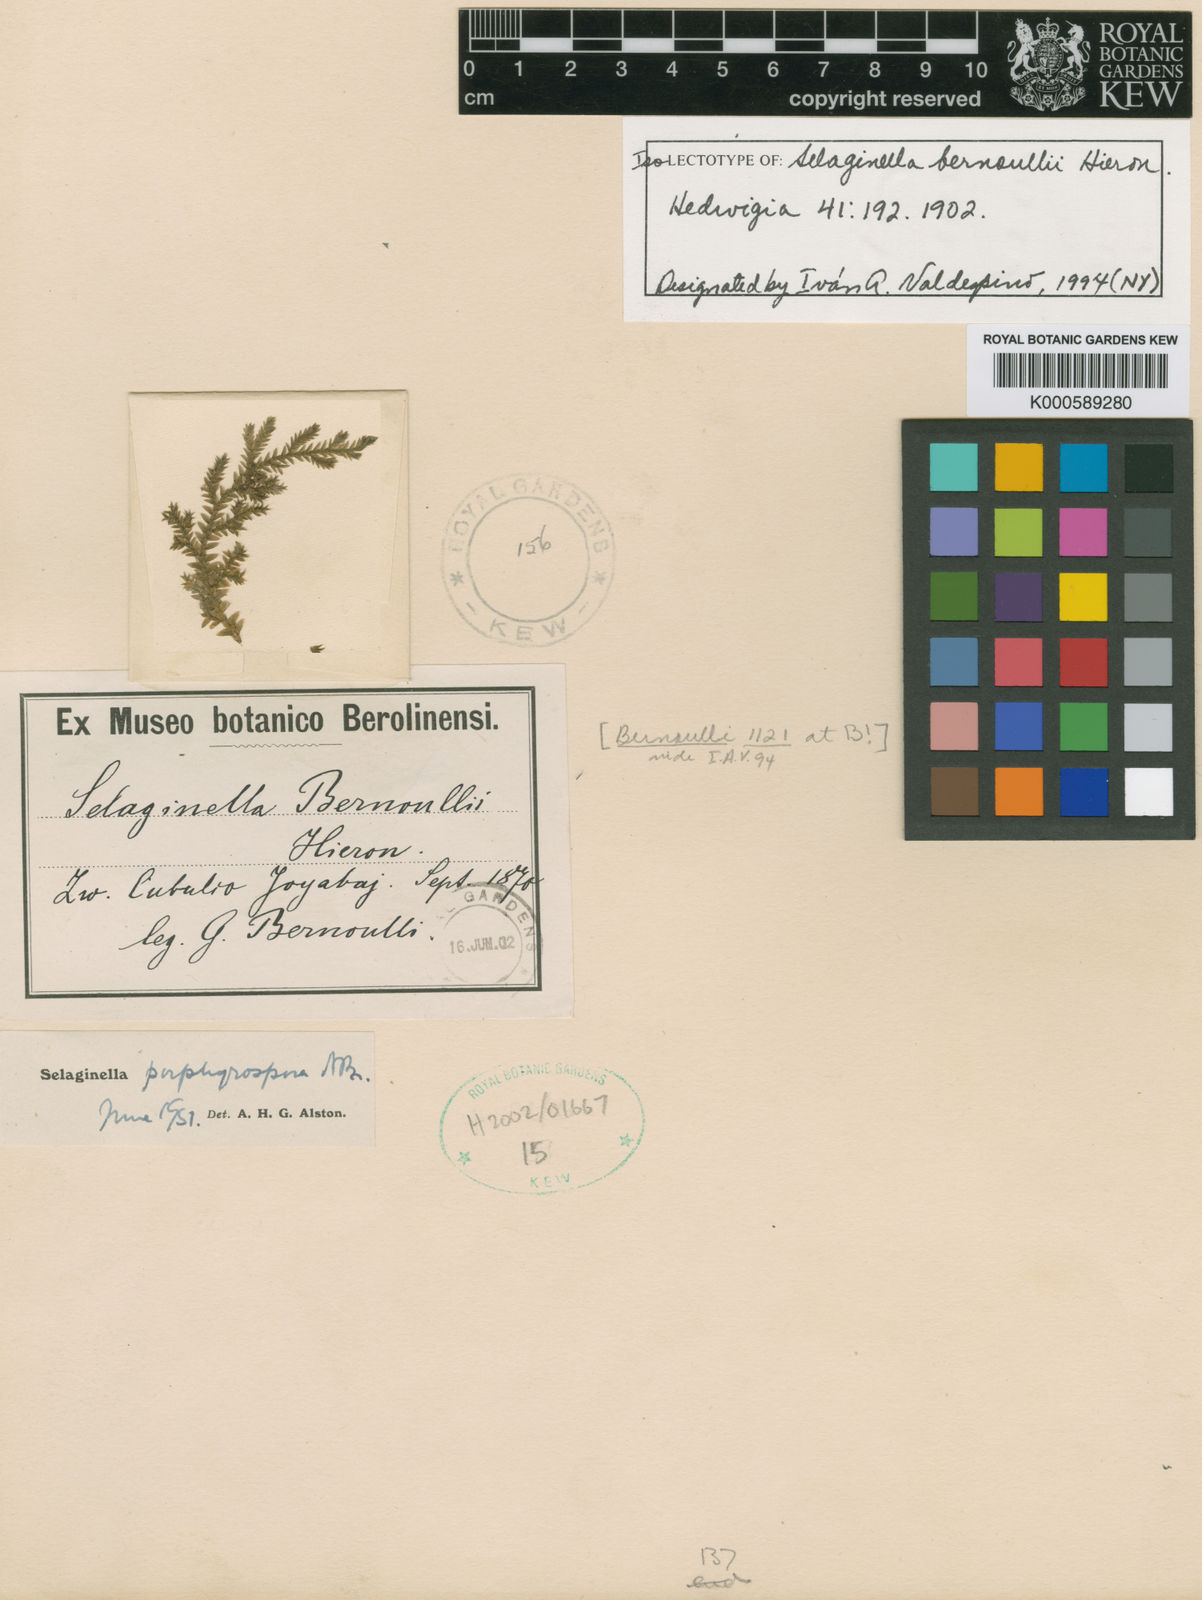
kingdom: Plantae
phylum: Tracheophyta
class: Lycopodiopsida
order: Selaginellales
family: Selaginellaceae
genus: Selaginella
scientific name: Selaginella sulcata
